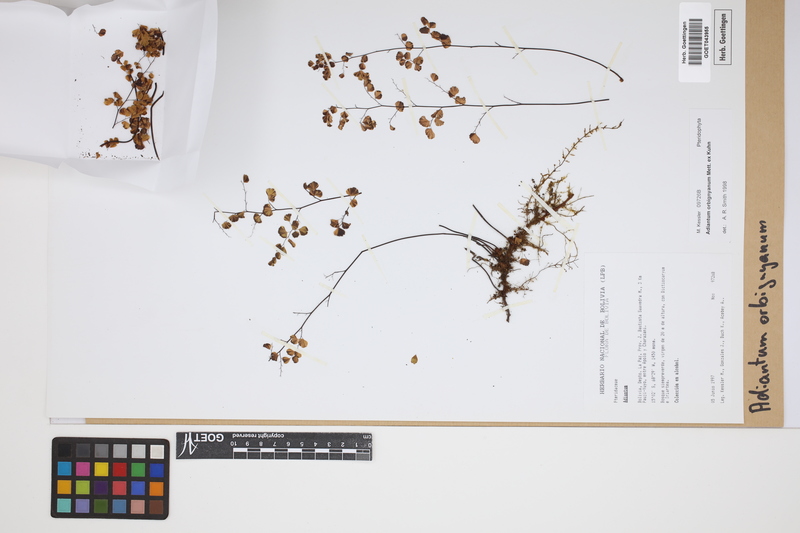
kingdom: Plantae
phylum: Tracheophyta
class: Polypodiopsida
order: Polypodiales
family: Pteridaceae
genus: Adiantum
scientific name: Adiantum orbignyanum
